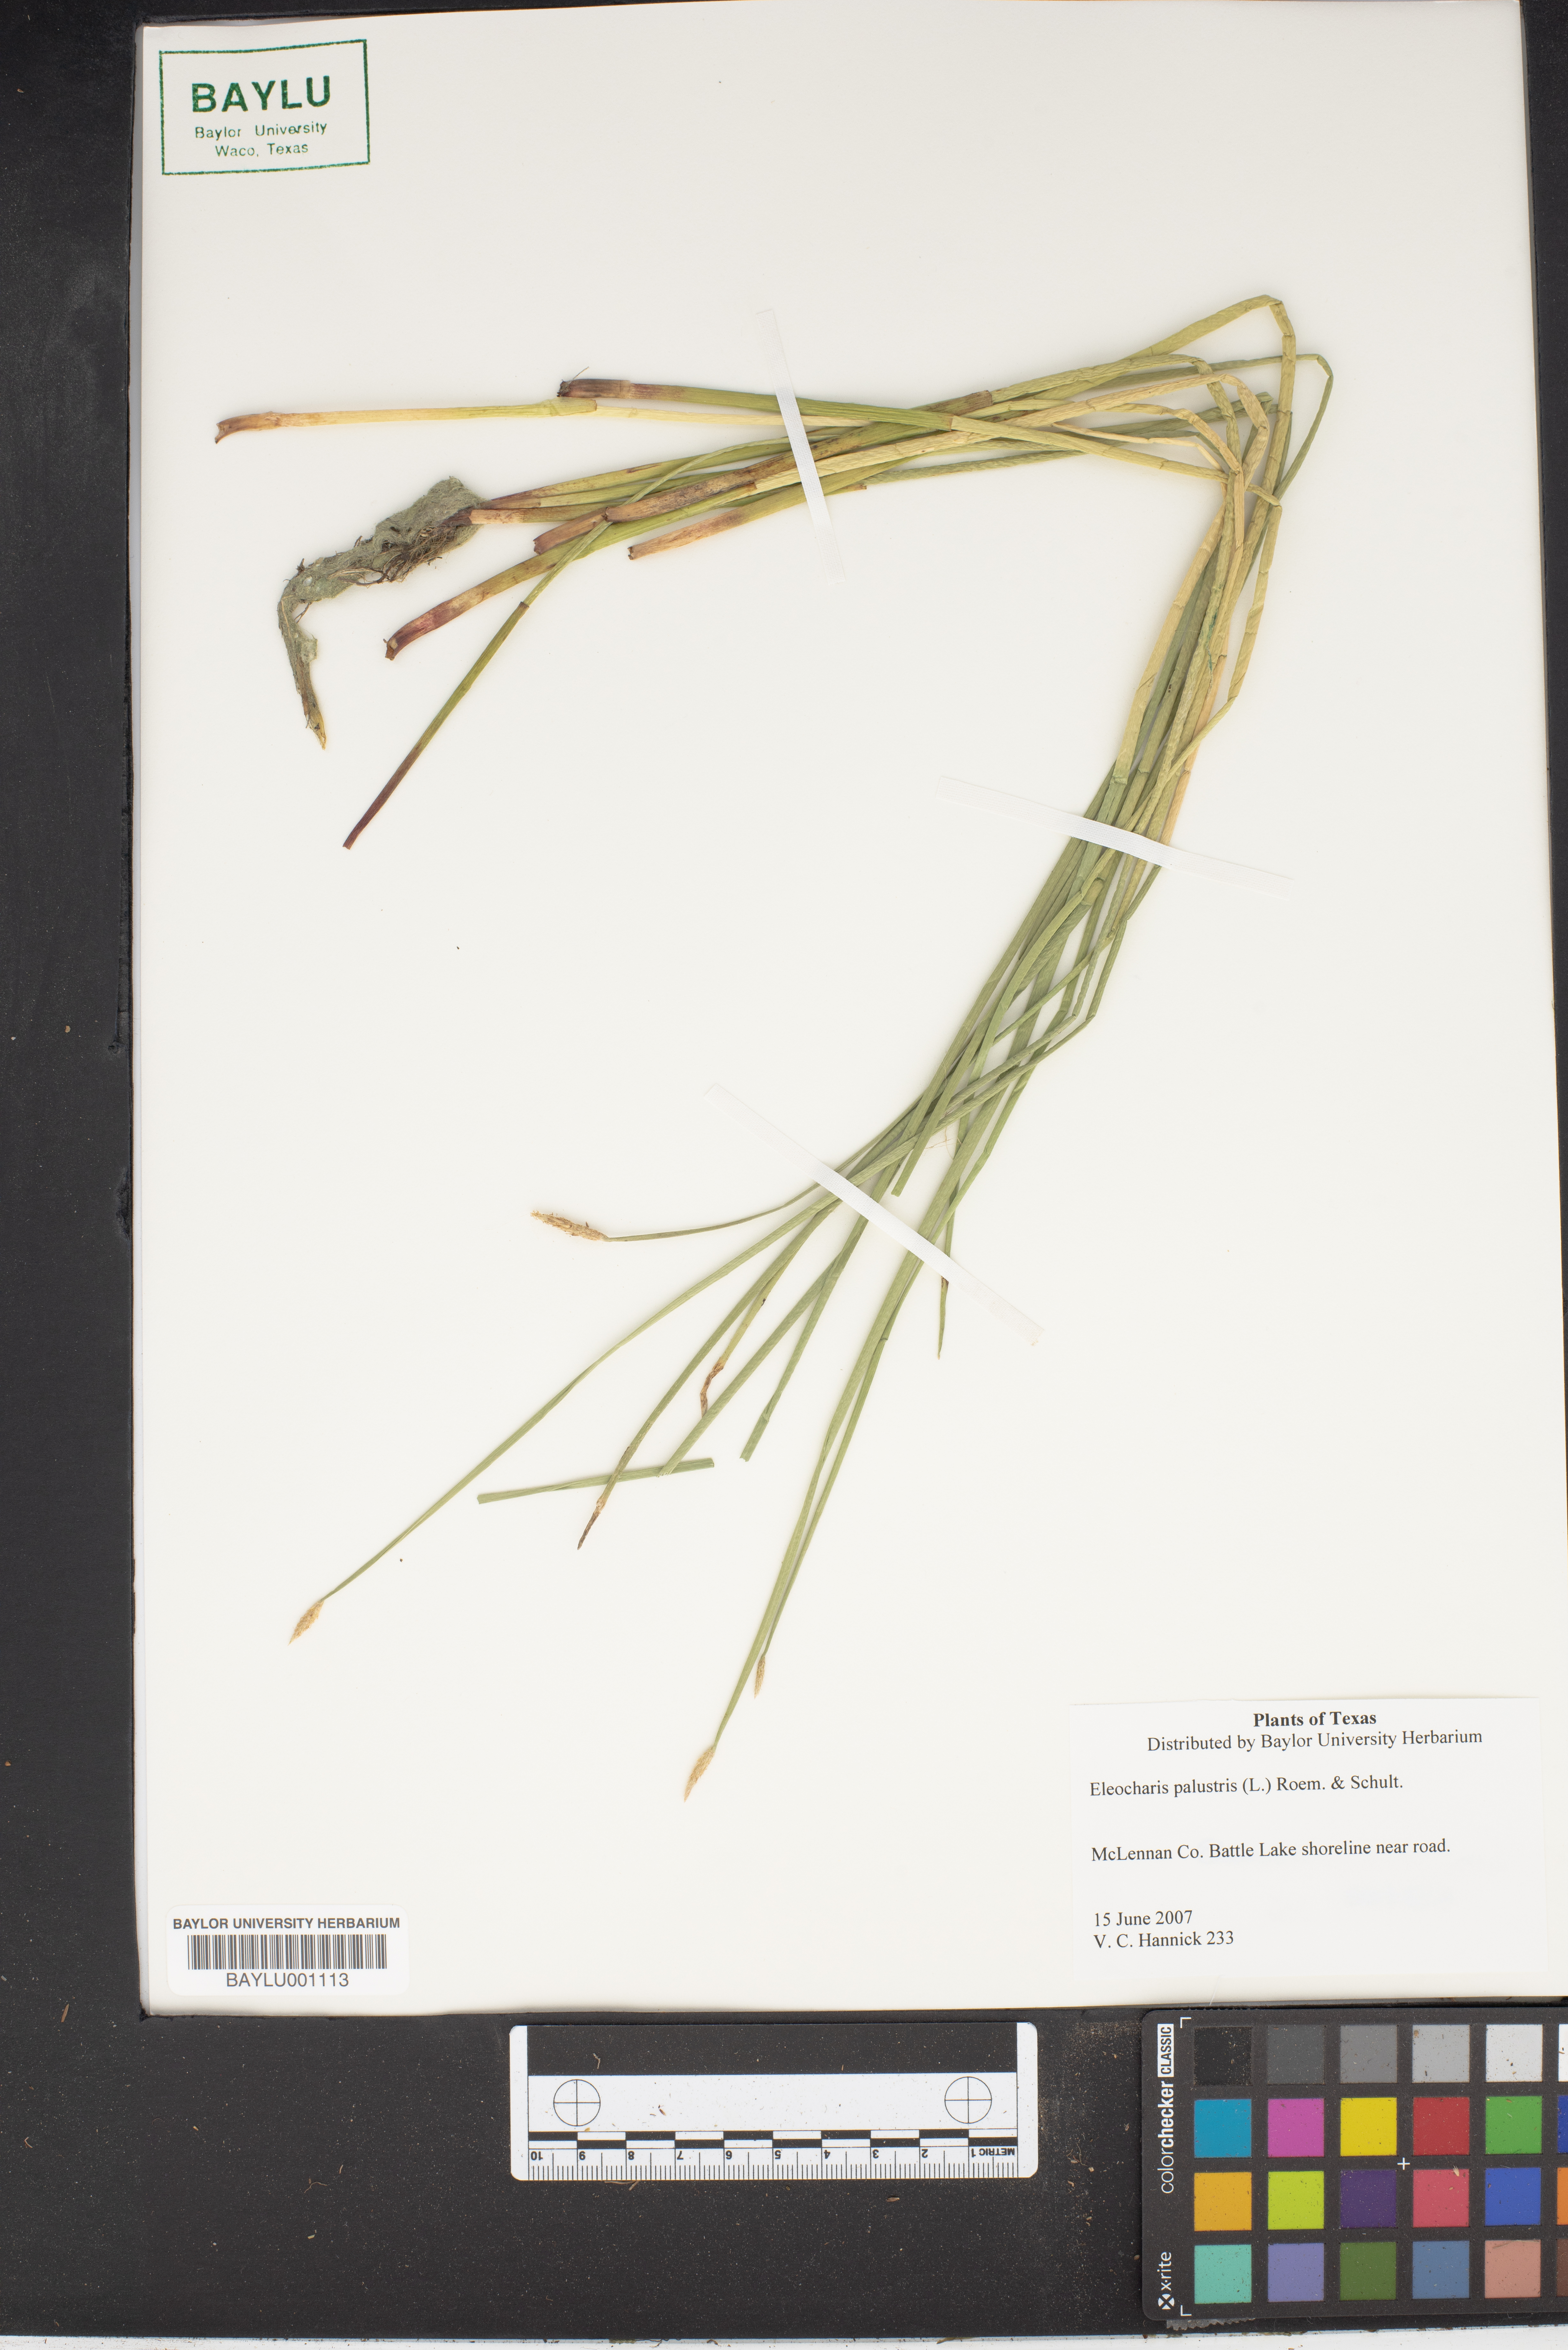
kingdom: Plantae
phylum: Tracheophyta
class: Liliopsida
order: Poales
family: Cyperaceae
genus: Eleocharis
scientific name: Eleocharis palustris
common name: Common spike-rush
